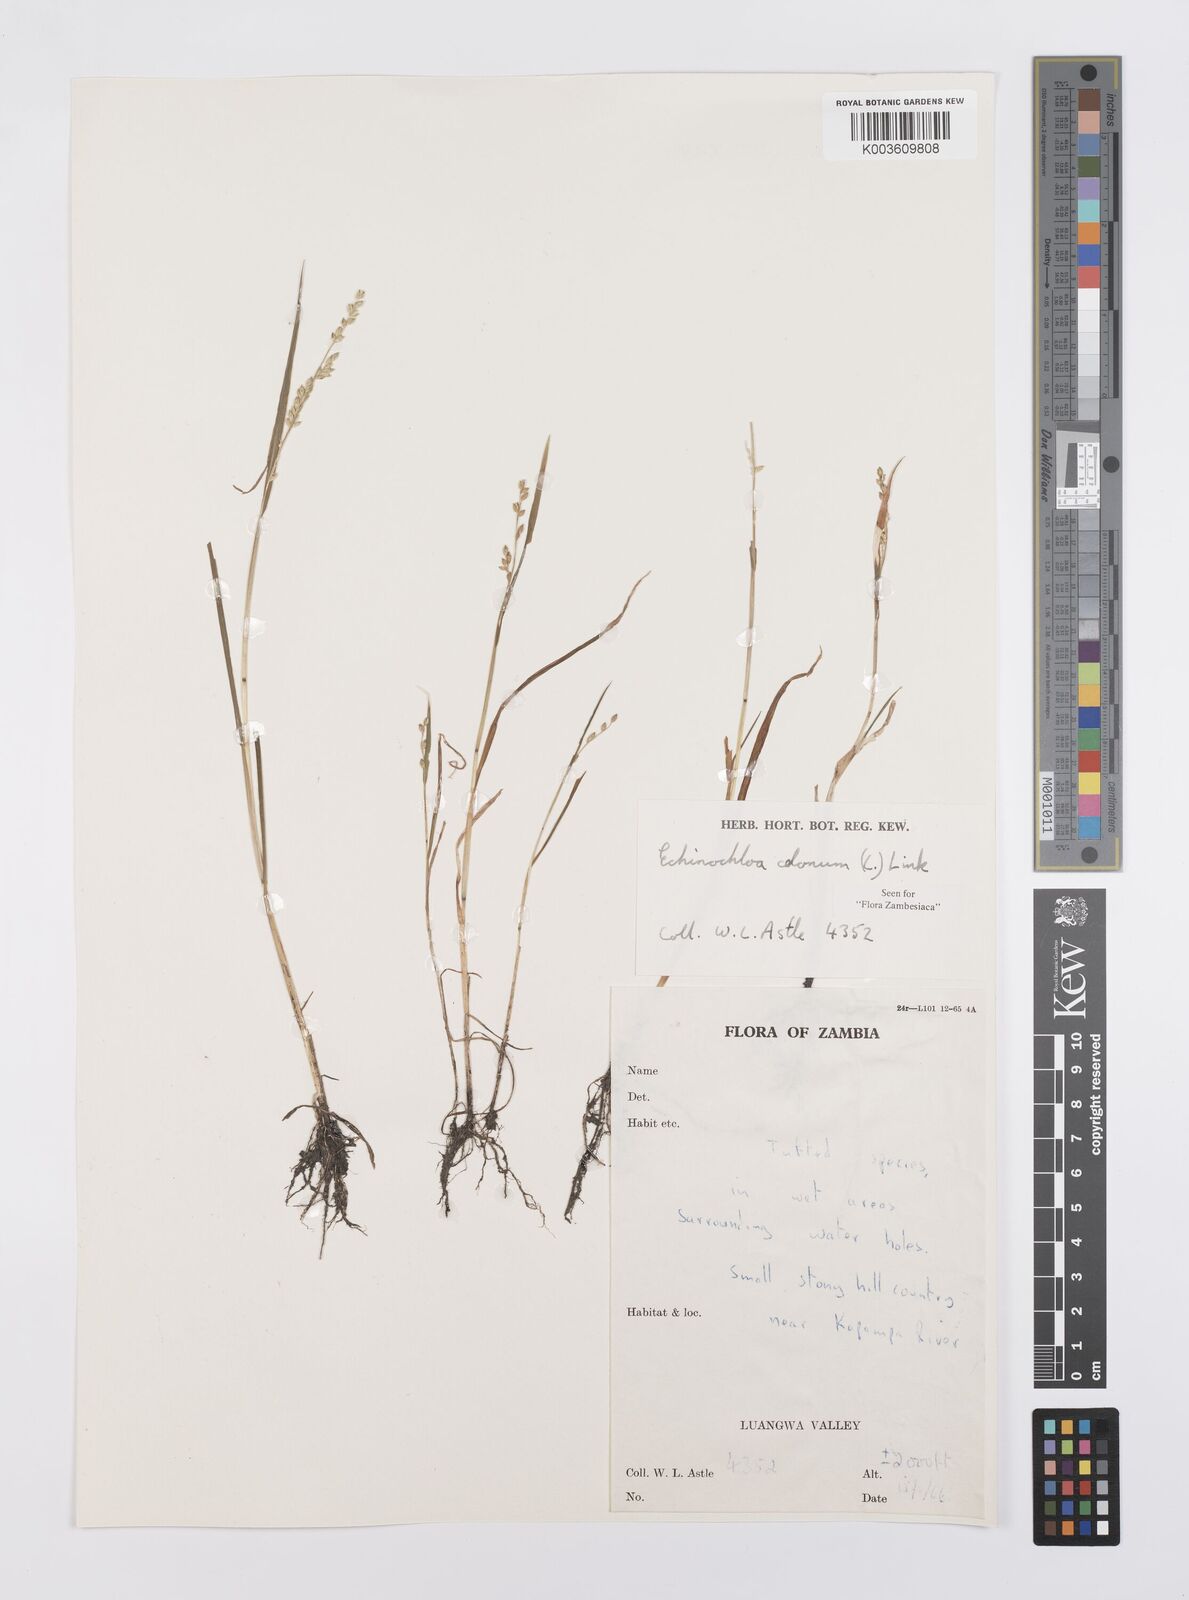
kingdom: Plantae
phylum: Tracheophyta
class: Liliopsida
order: Poales
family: Poaceae
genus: Echinochloa
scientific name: Echinochloa colonum
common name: Jungle rice
